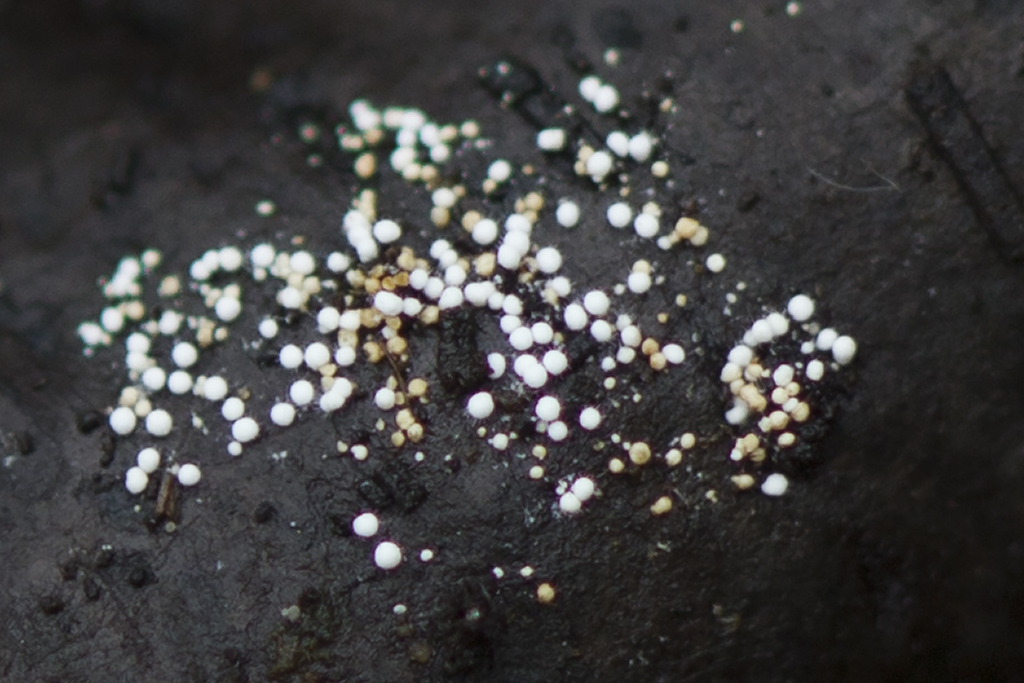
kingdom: Fungi
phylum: Basidiomycota
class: Agaricomycetes
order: Trechisporales
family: Hydnodontaceae
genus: Subulicystidium
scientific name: Subulicystidium longisporum
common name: almindelig pigtrådshinde
